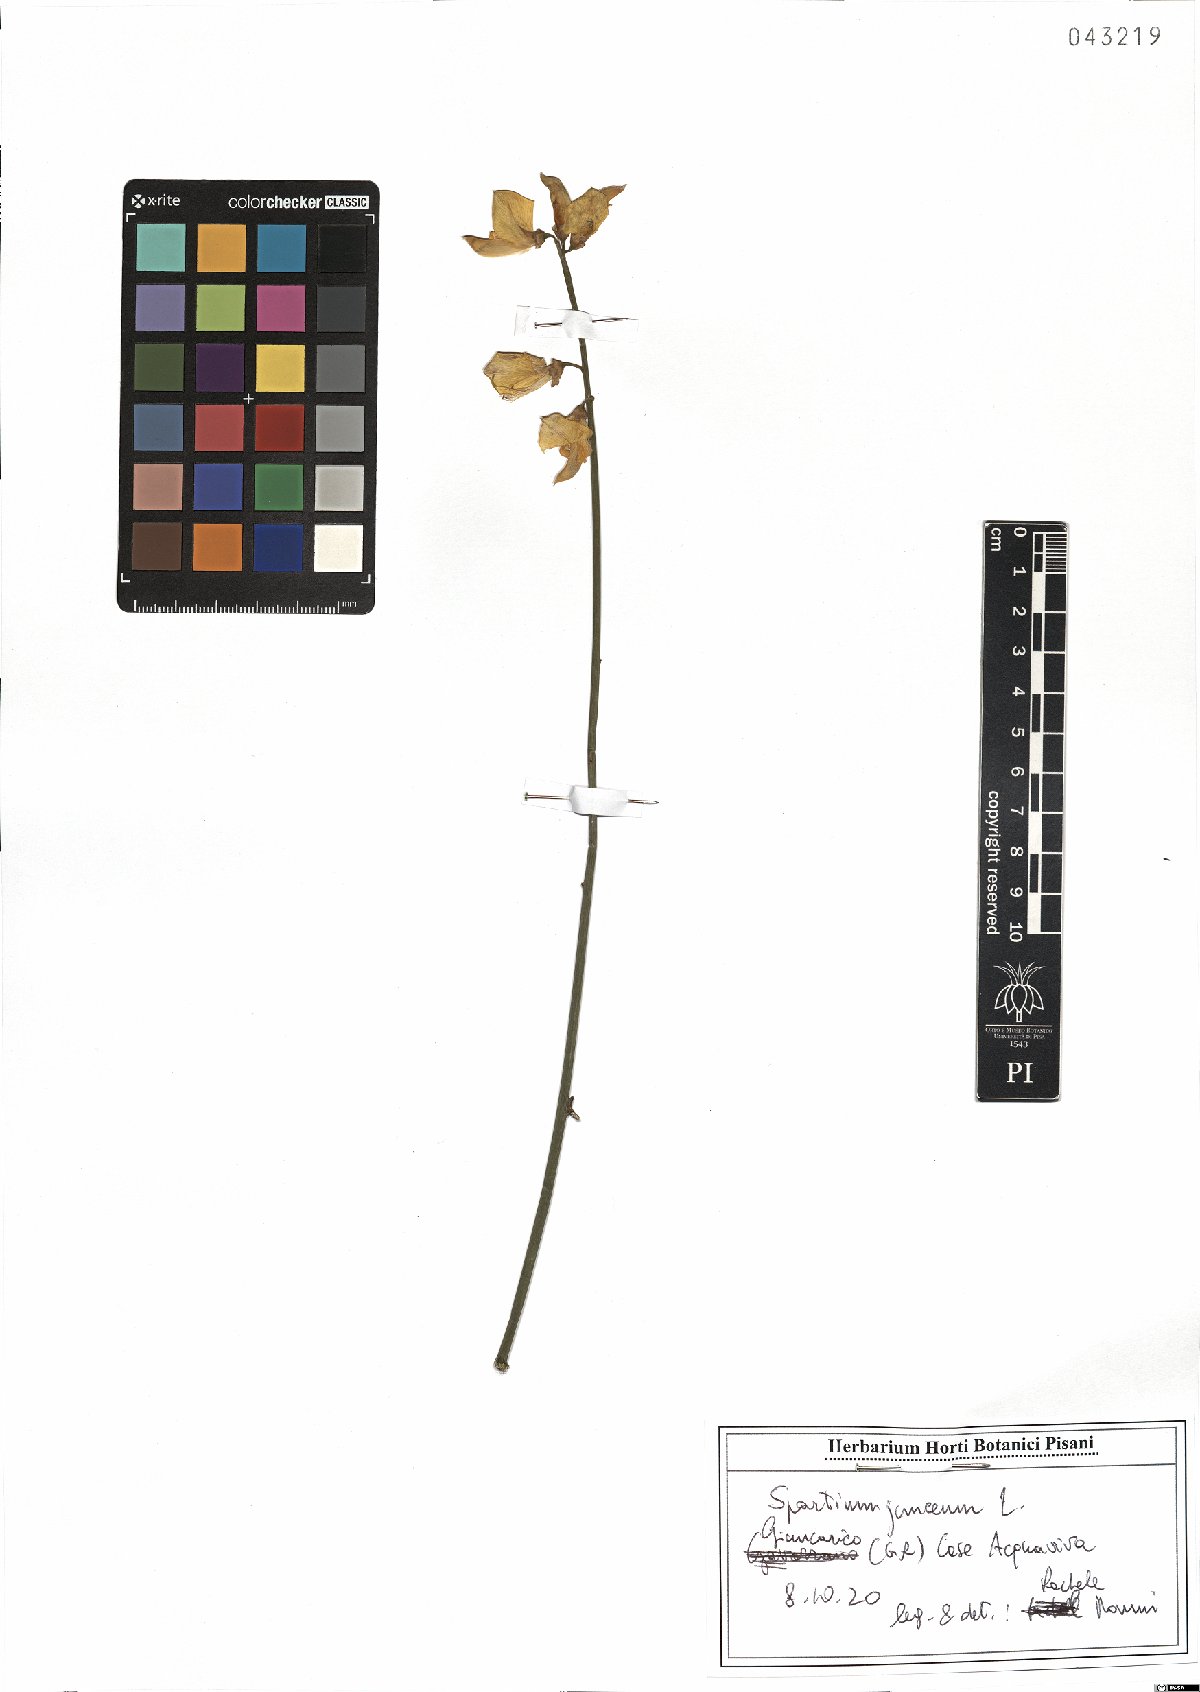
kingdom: Plantae
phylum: Tracheophyta
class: Magnoliopsida
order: Fabales
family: Fabaceae
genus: Spartium
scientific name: Spartium junceum
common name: Spanish broom
